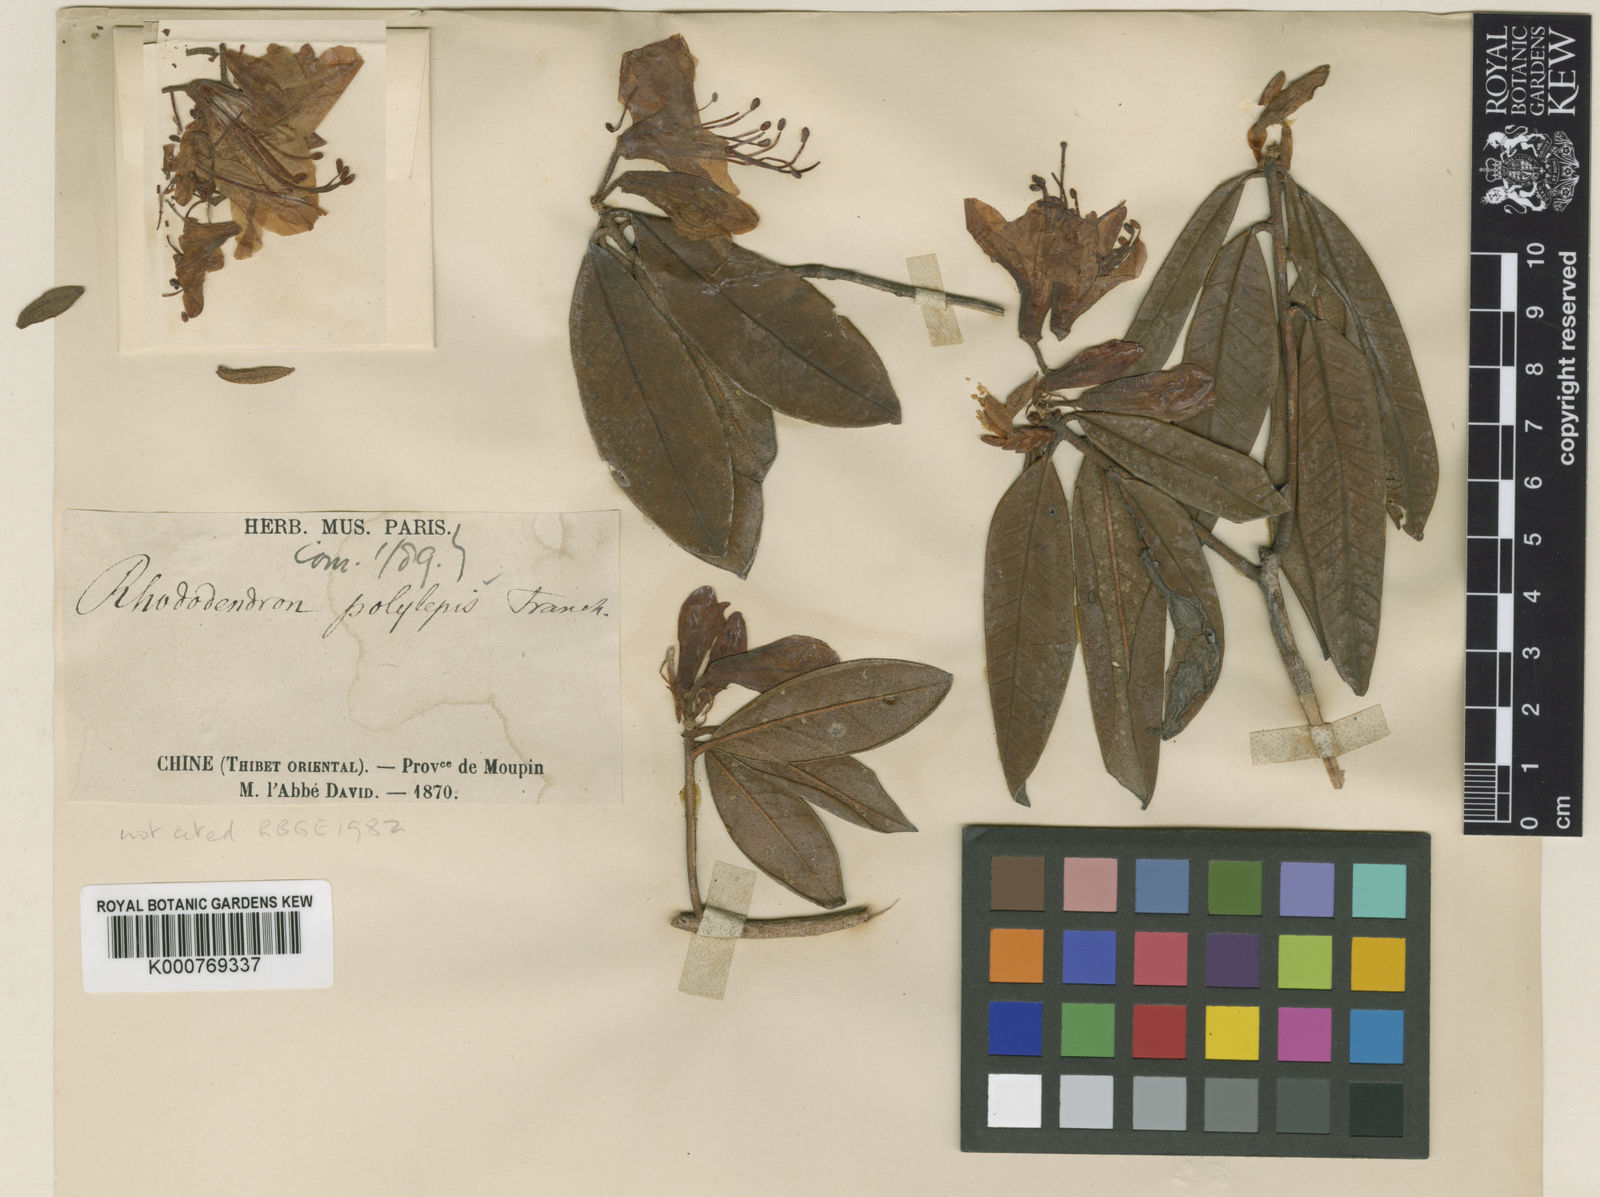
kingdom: Plantae
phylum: Tracheophyta
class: Magnoliopsida
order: Ericales
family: Ericaceae
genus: Rhododendron
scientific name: Rhododendron polylepis
